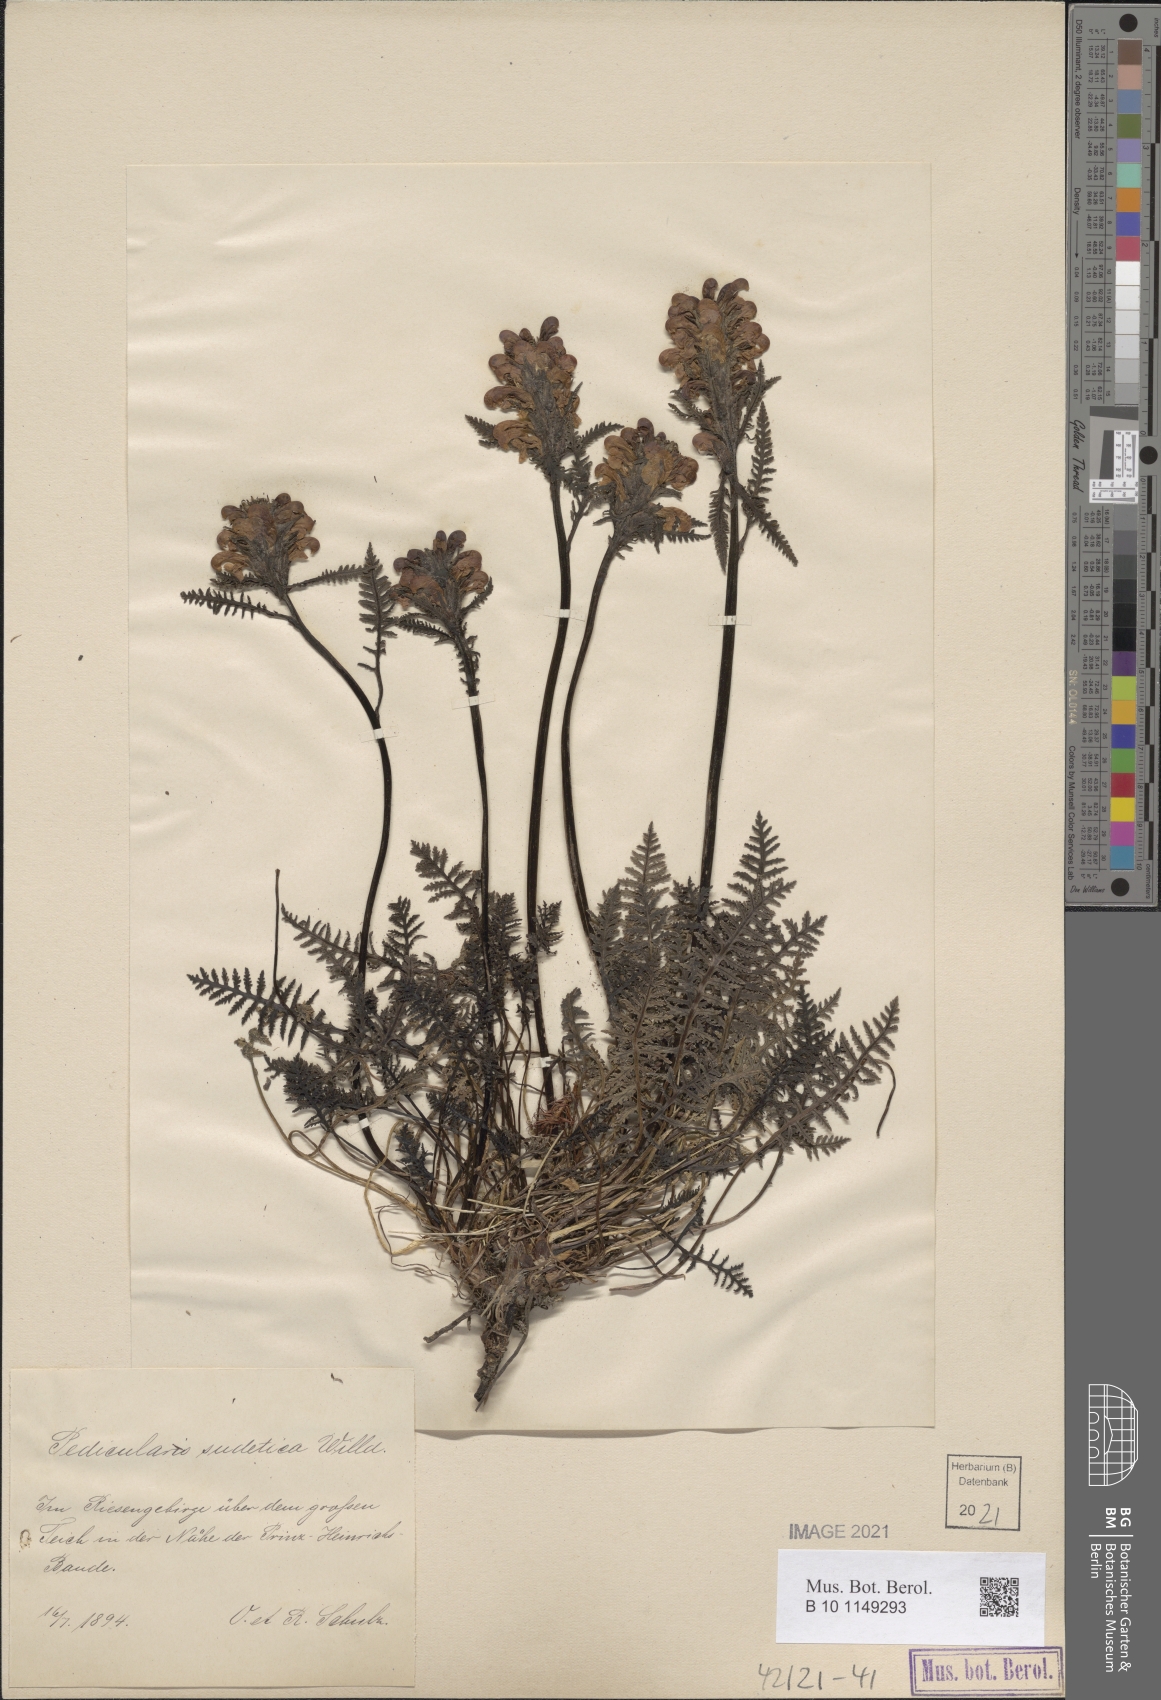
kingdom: Plantae
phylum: Tracheophyta
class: Magnoliopsida
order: Lamiales
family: Orobanchaceae
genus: Pedicularis
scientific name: Pedicularis sudetica
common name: Sudeten lousewort
